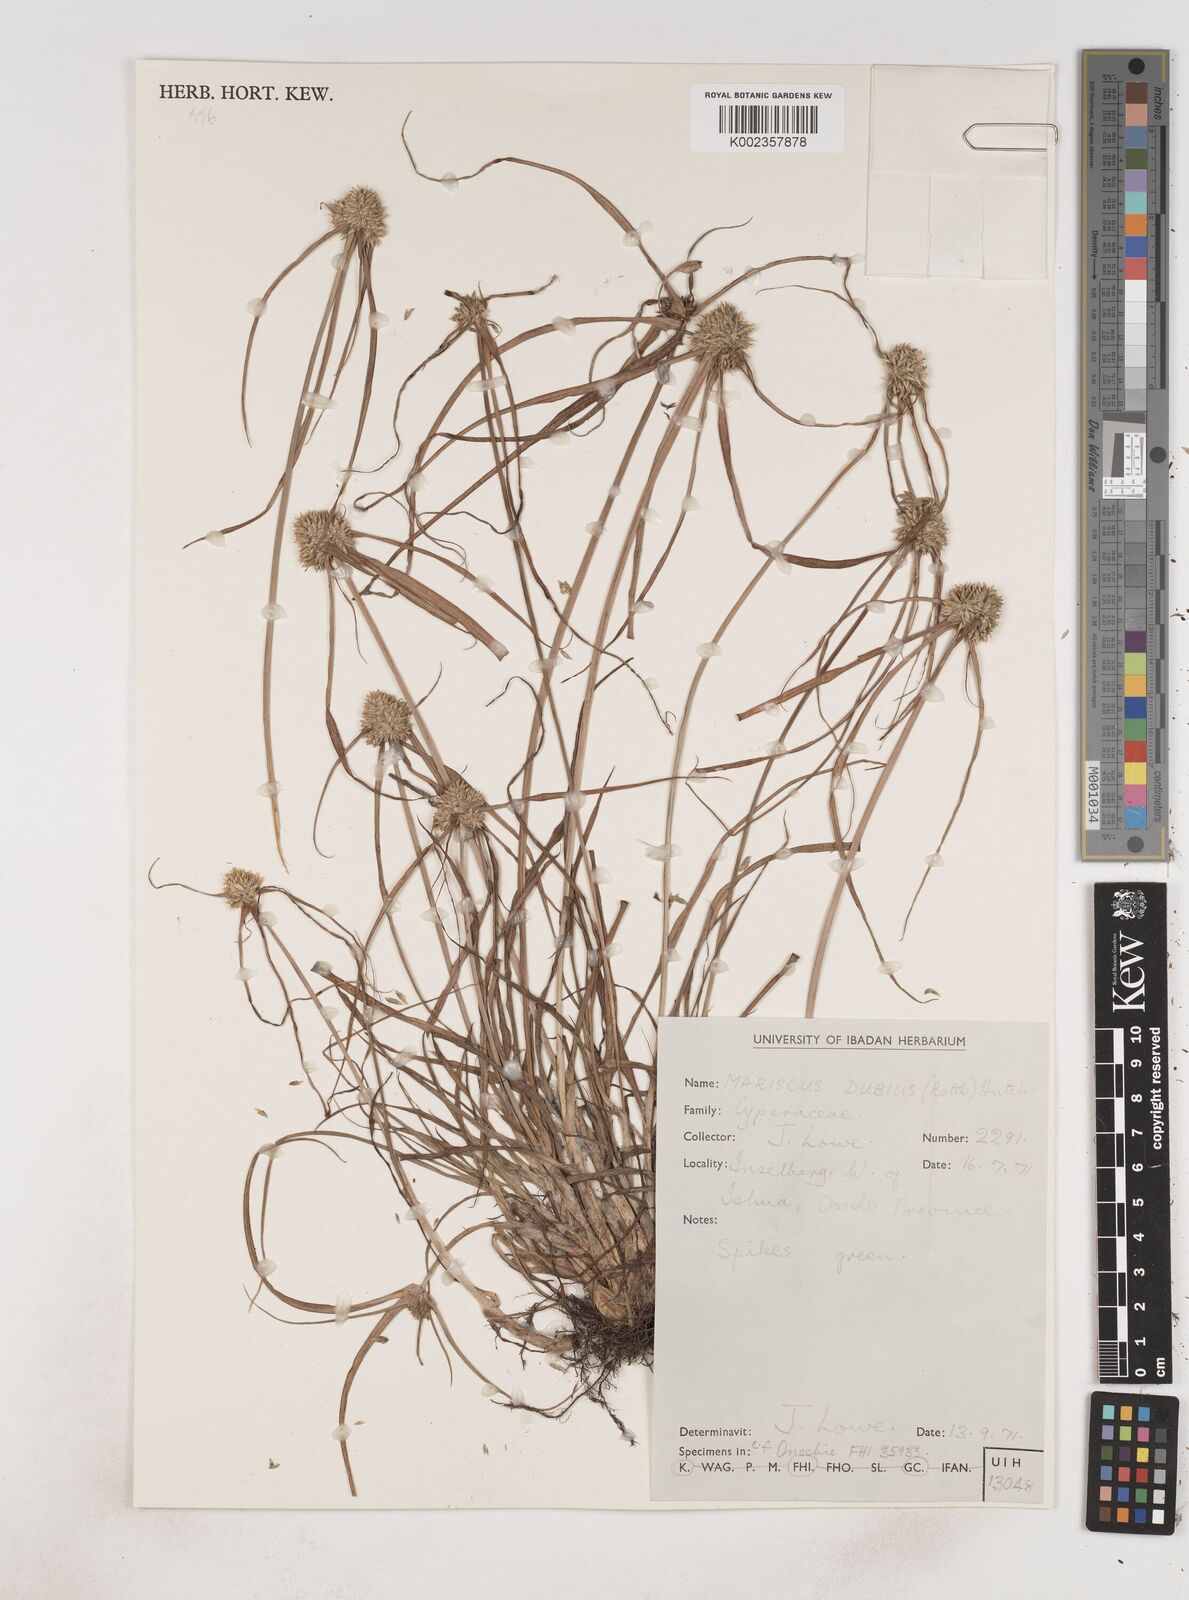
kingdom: Plantae
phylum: Tracheophyta
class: Liliopsida
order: Poales
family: Cyperaceae
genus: Cyperus
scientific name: Cyperus dubius
